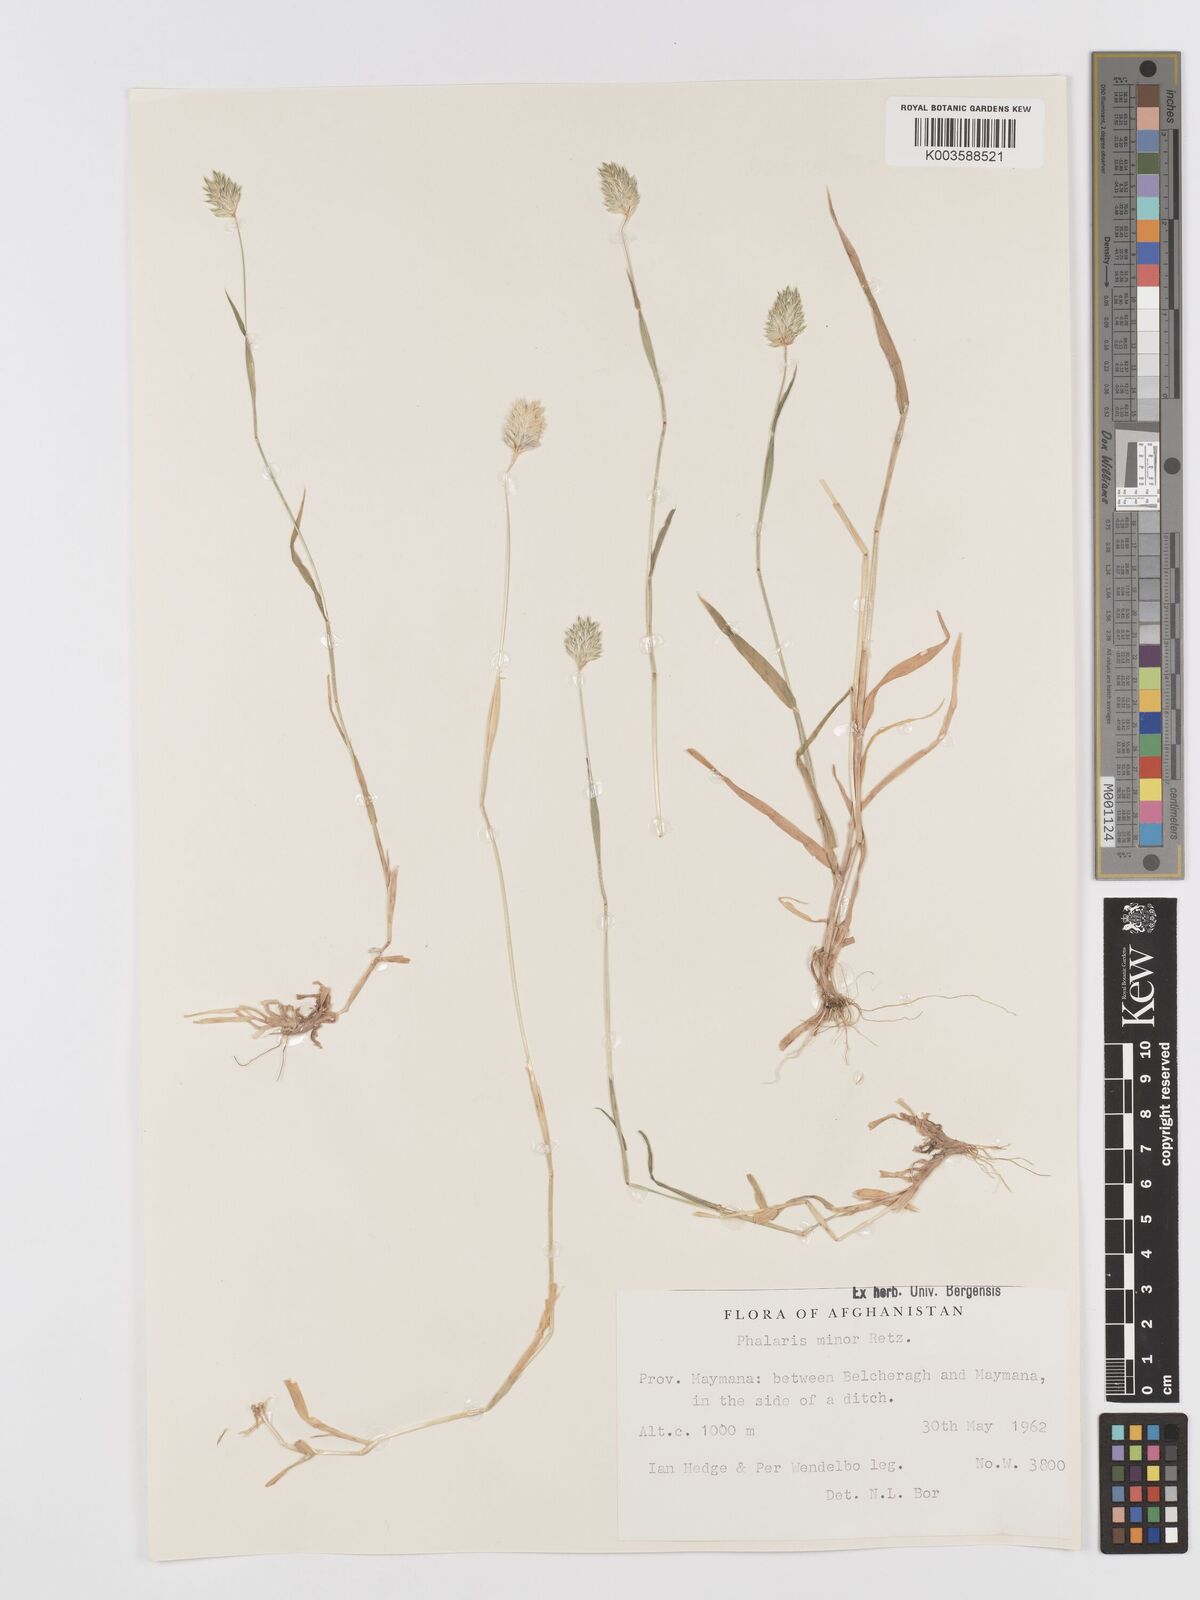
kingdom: Plantae
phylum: Tracheophyta
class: Liliopsida
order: Poales
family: Poaceae
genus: Phalaris
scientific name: Phalaris minor
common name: Littleseed canarygrass
